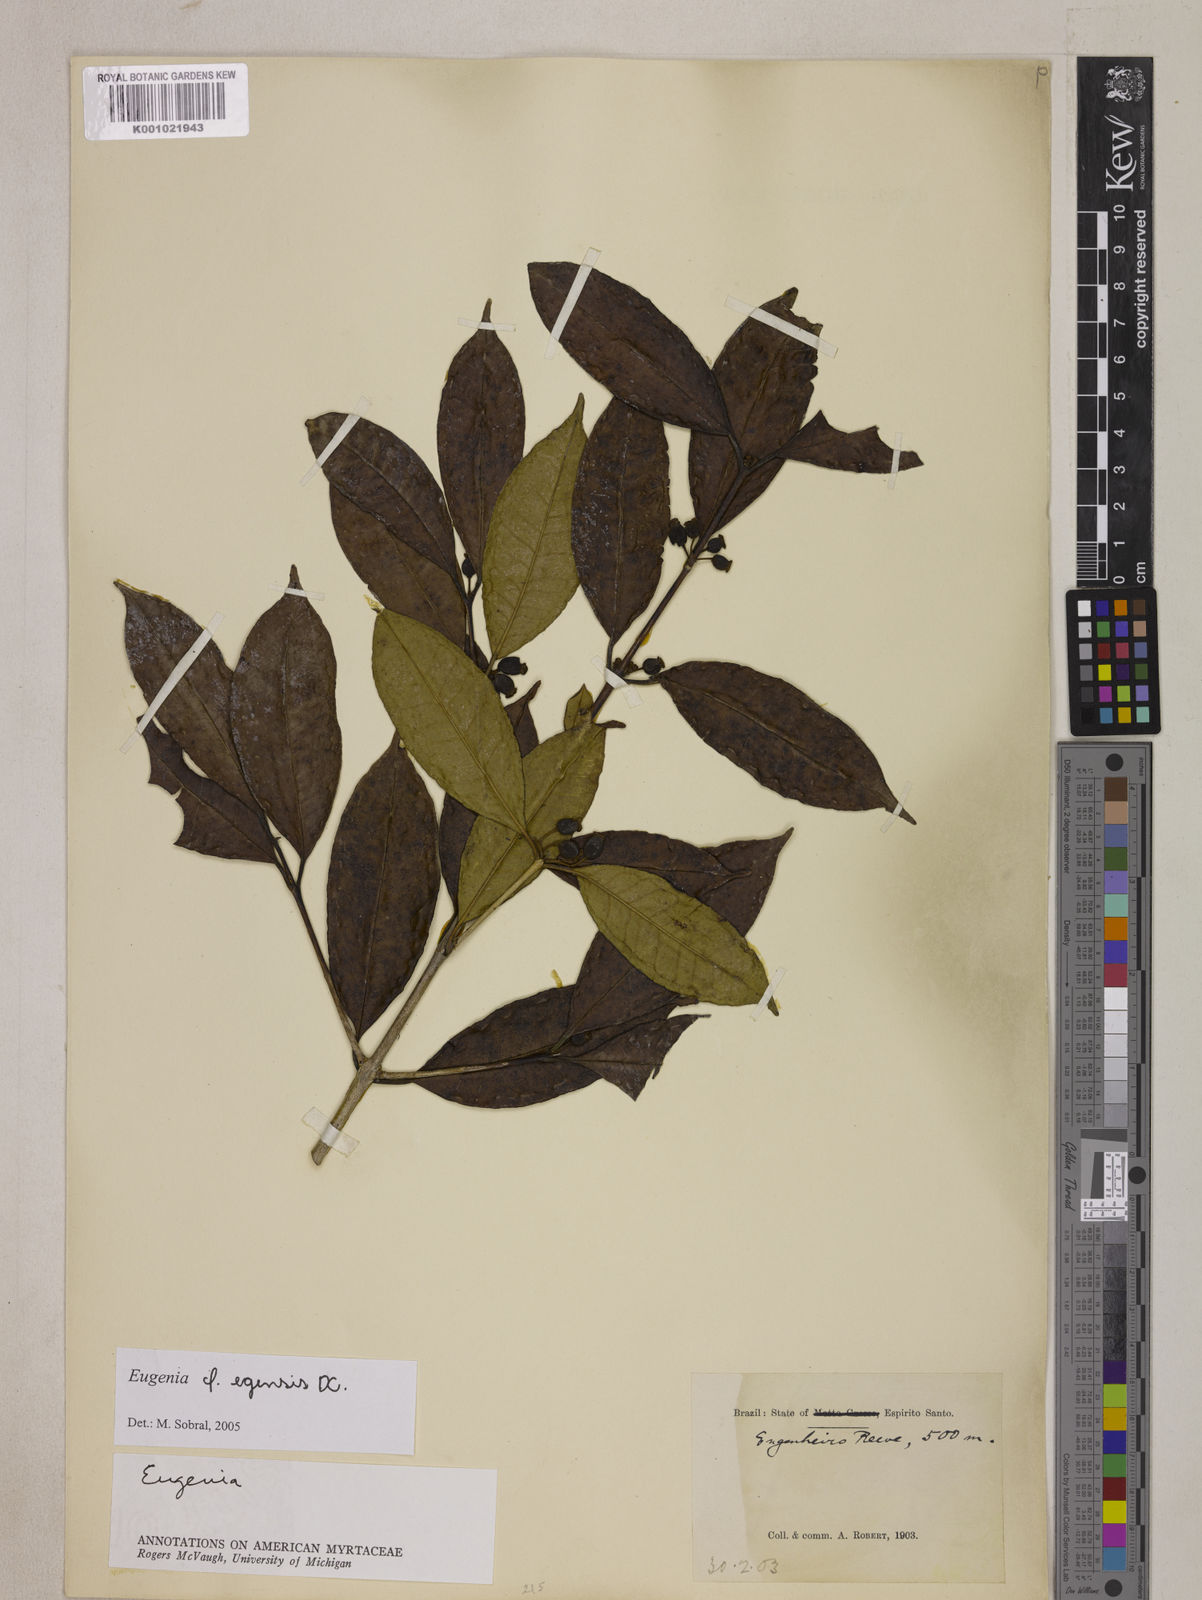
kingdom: Plantae
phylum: Tracheophyta
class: Magnoliopsida
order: Myrtales
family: Myrtaceae
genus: Eugenia
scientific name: Eugenia egensis
